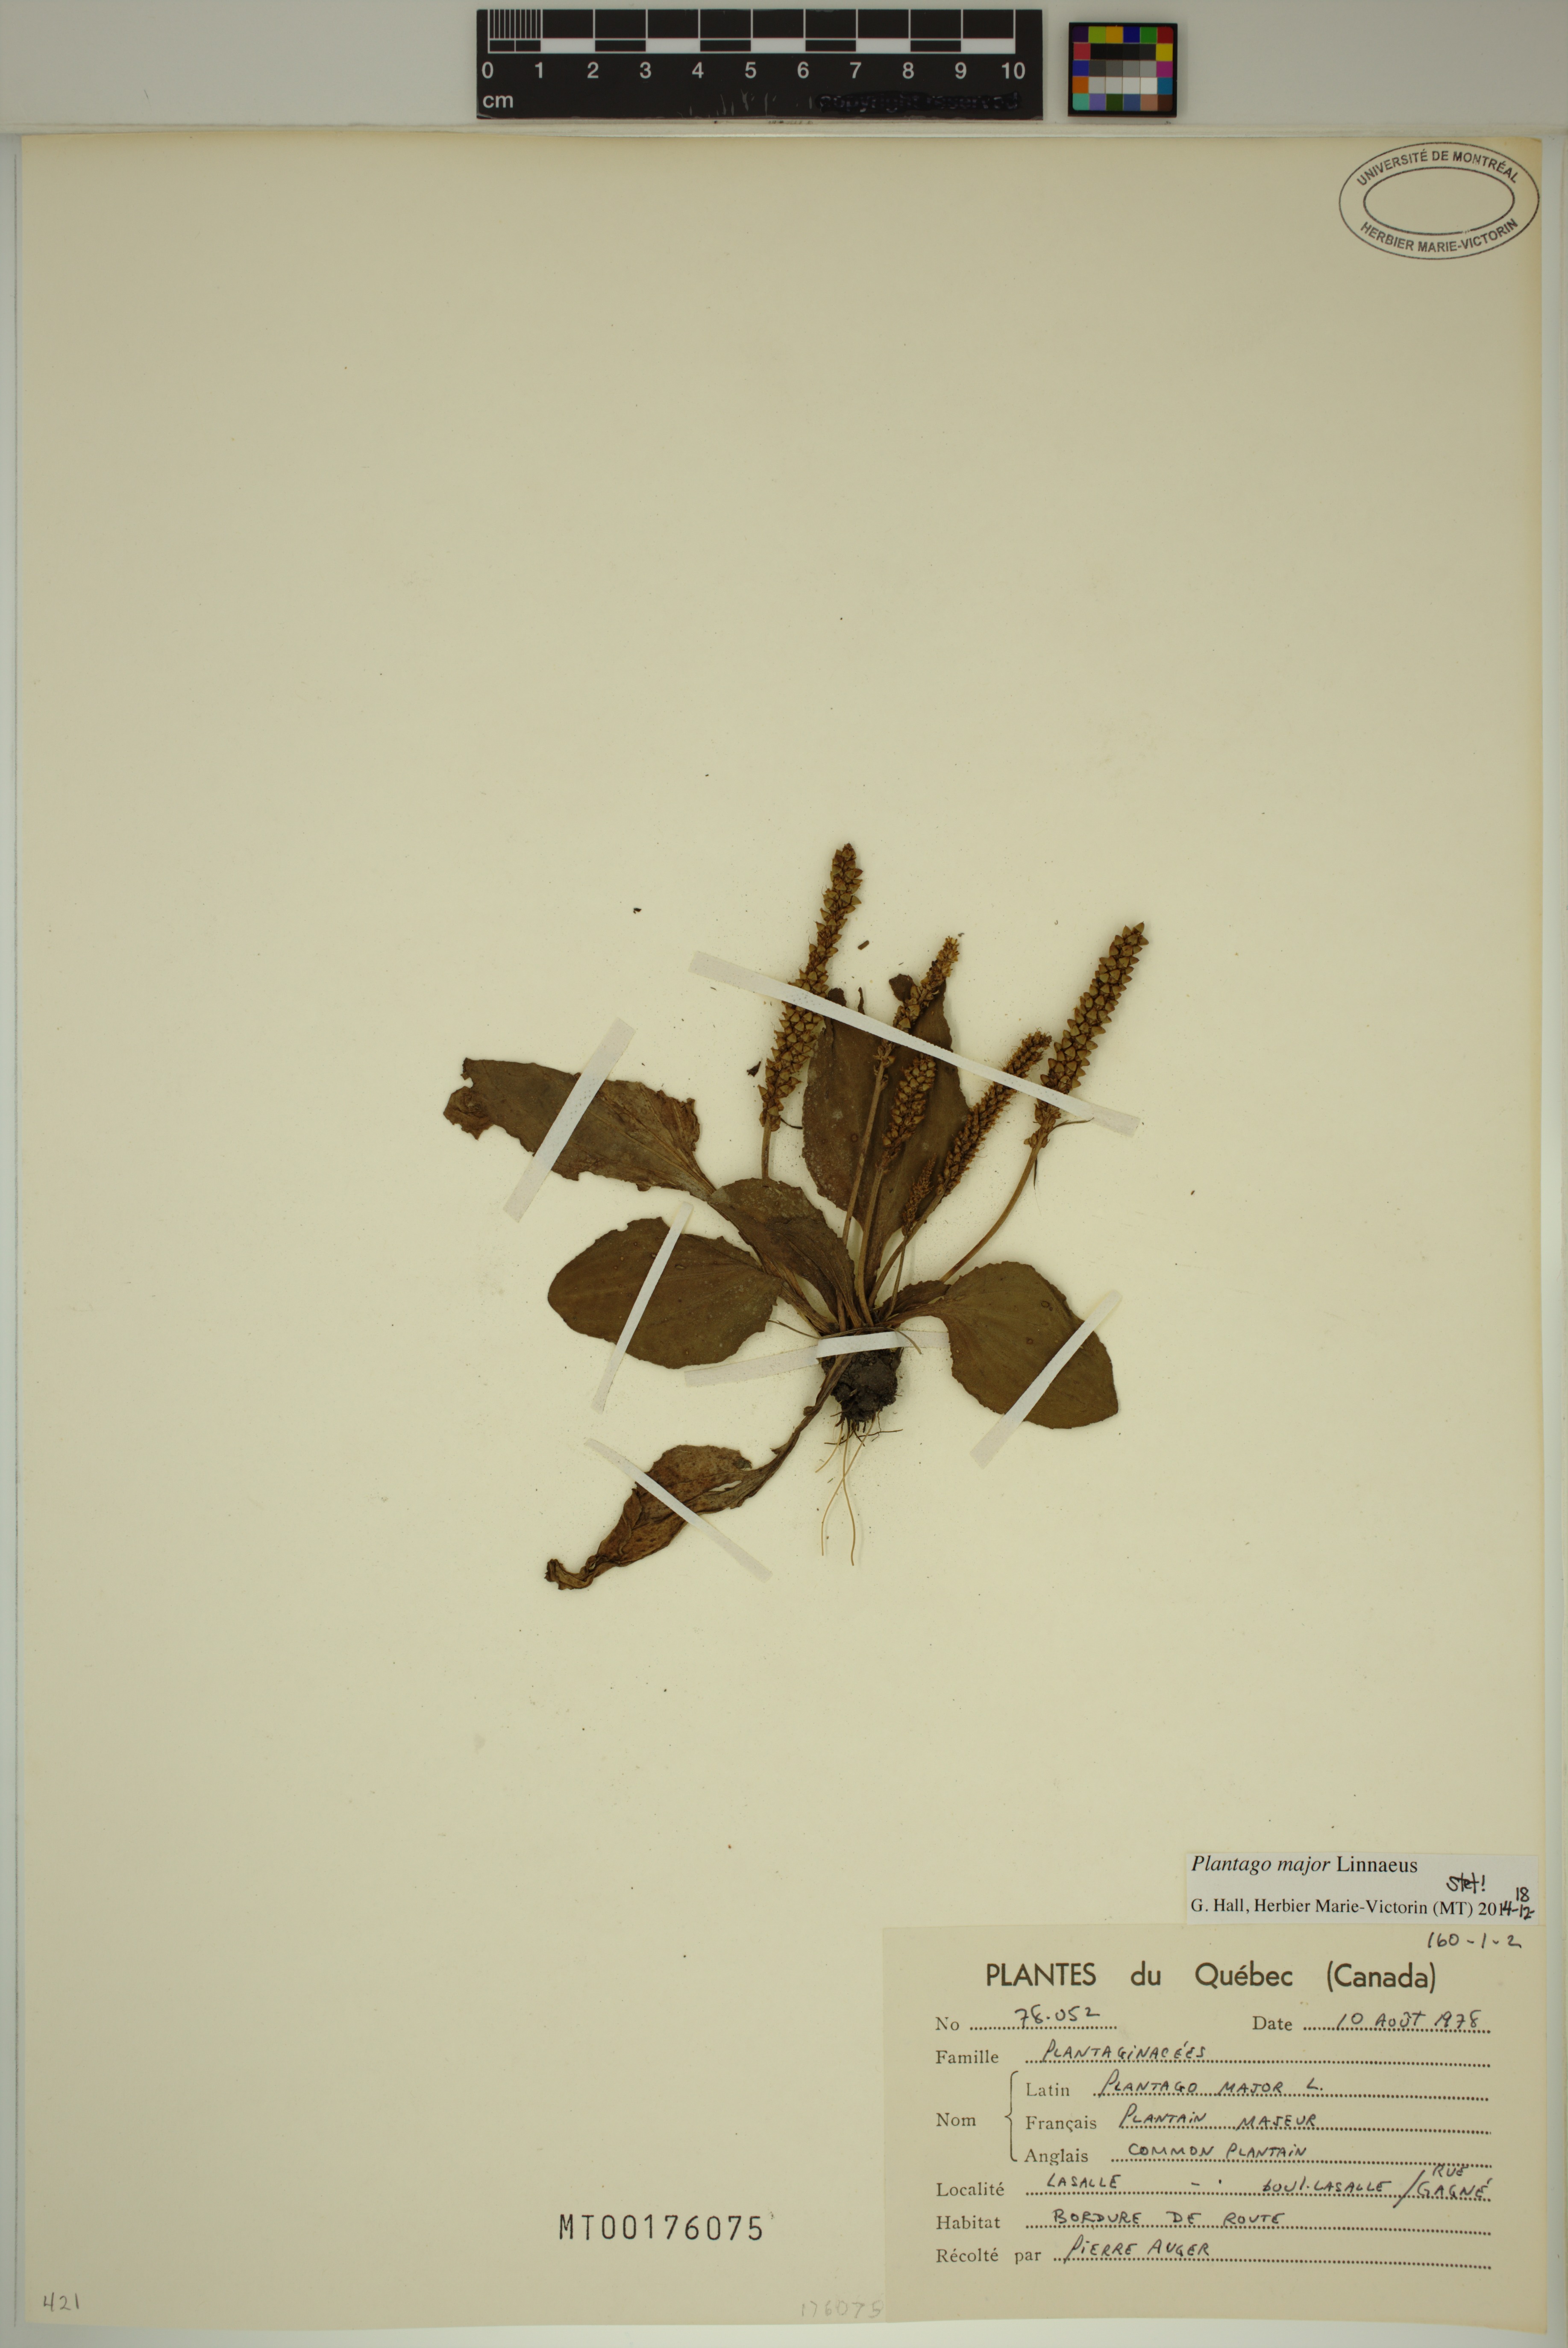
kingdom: Plantae
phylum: Tracheophyta
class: Magnoliopsida
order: Lamiales
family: Plantaginaceae
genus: Plantago
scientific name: Plantago major
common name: Common plantain
